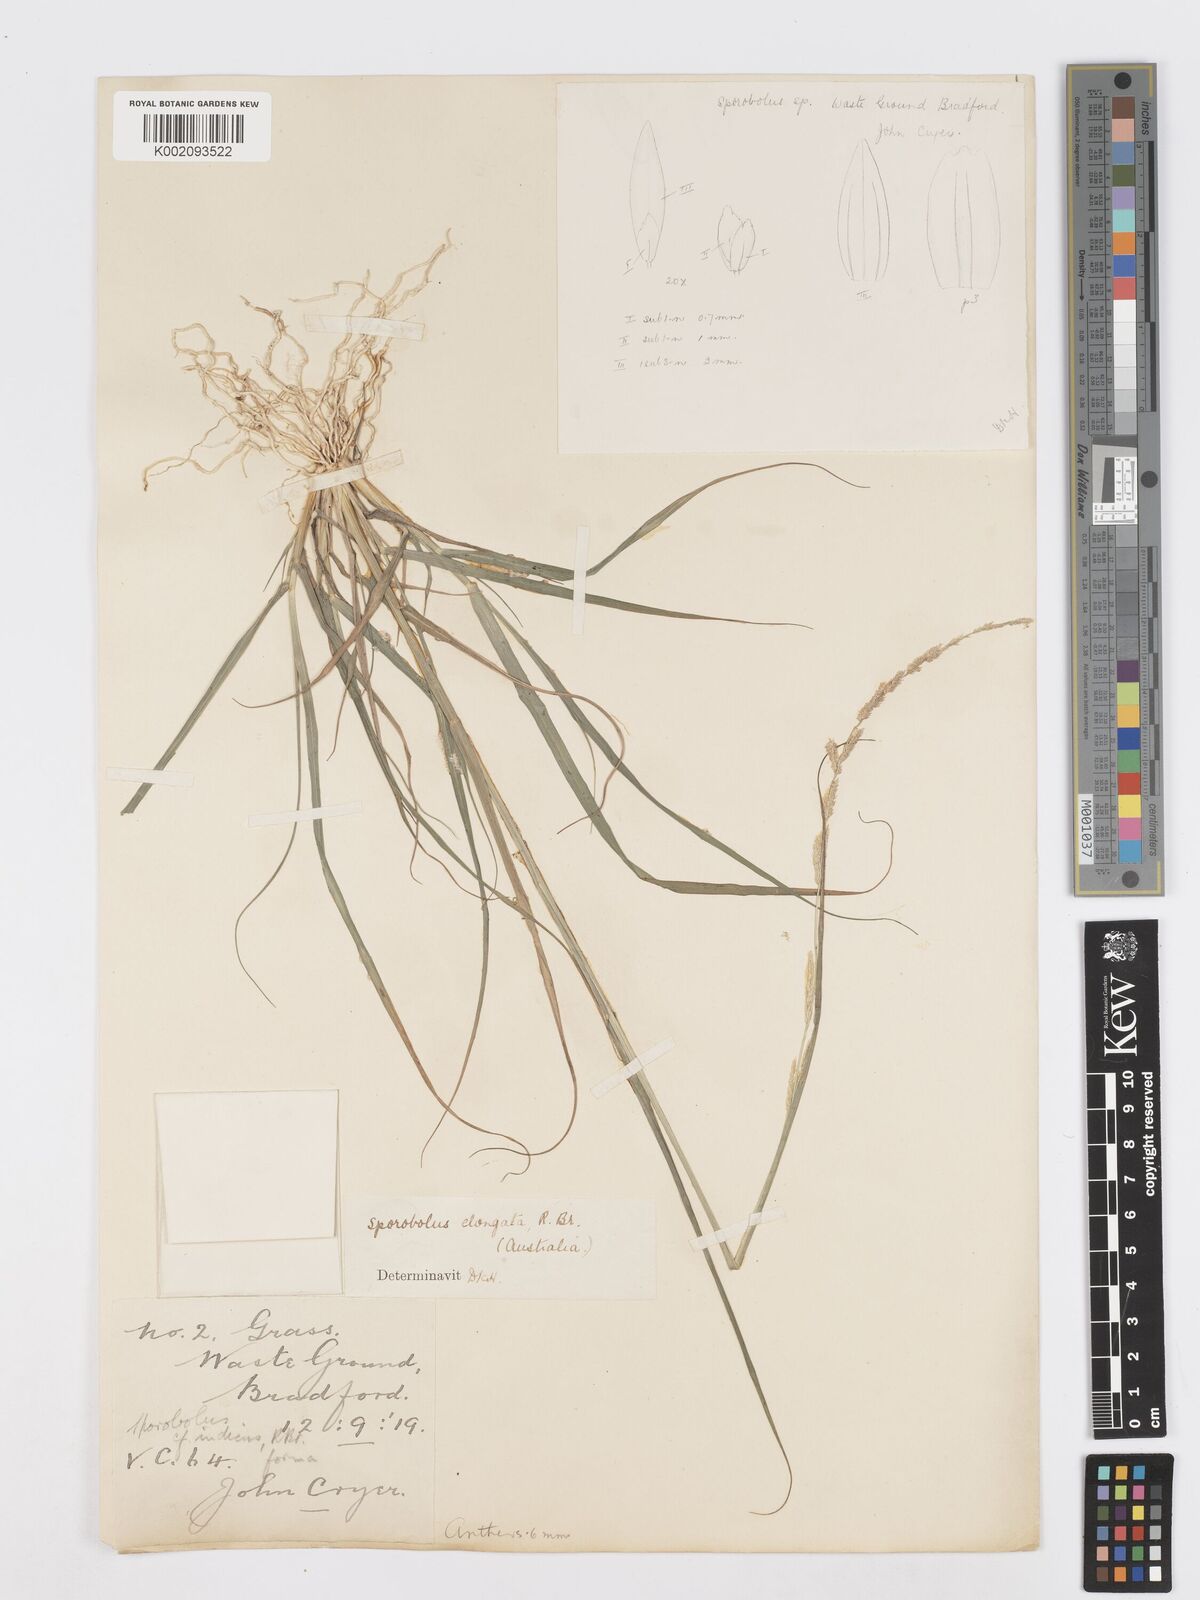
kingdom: Plantae
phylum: Tracheophyta
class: Liliopsida
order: Poales
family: Poaceae
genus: Sporobolus
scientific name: Sporobolus elongatus
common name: Rat tail grass
